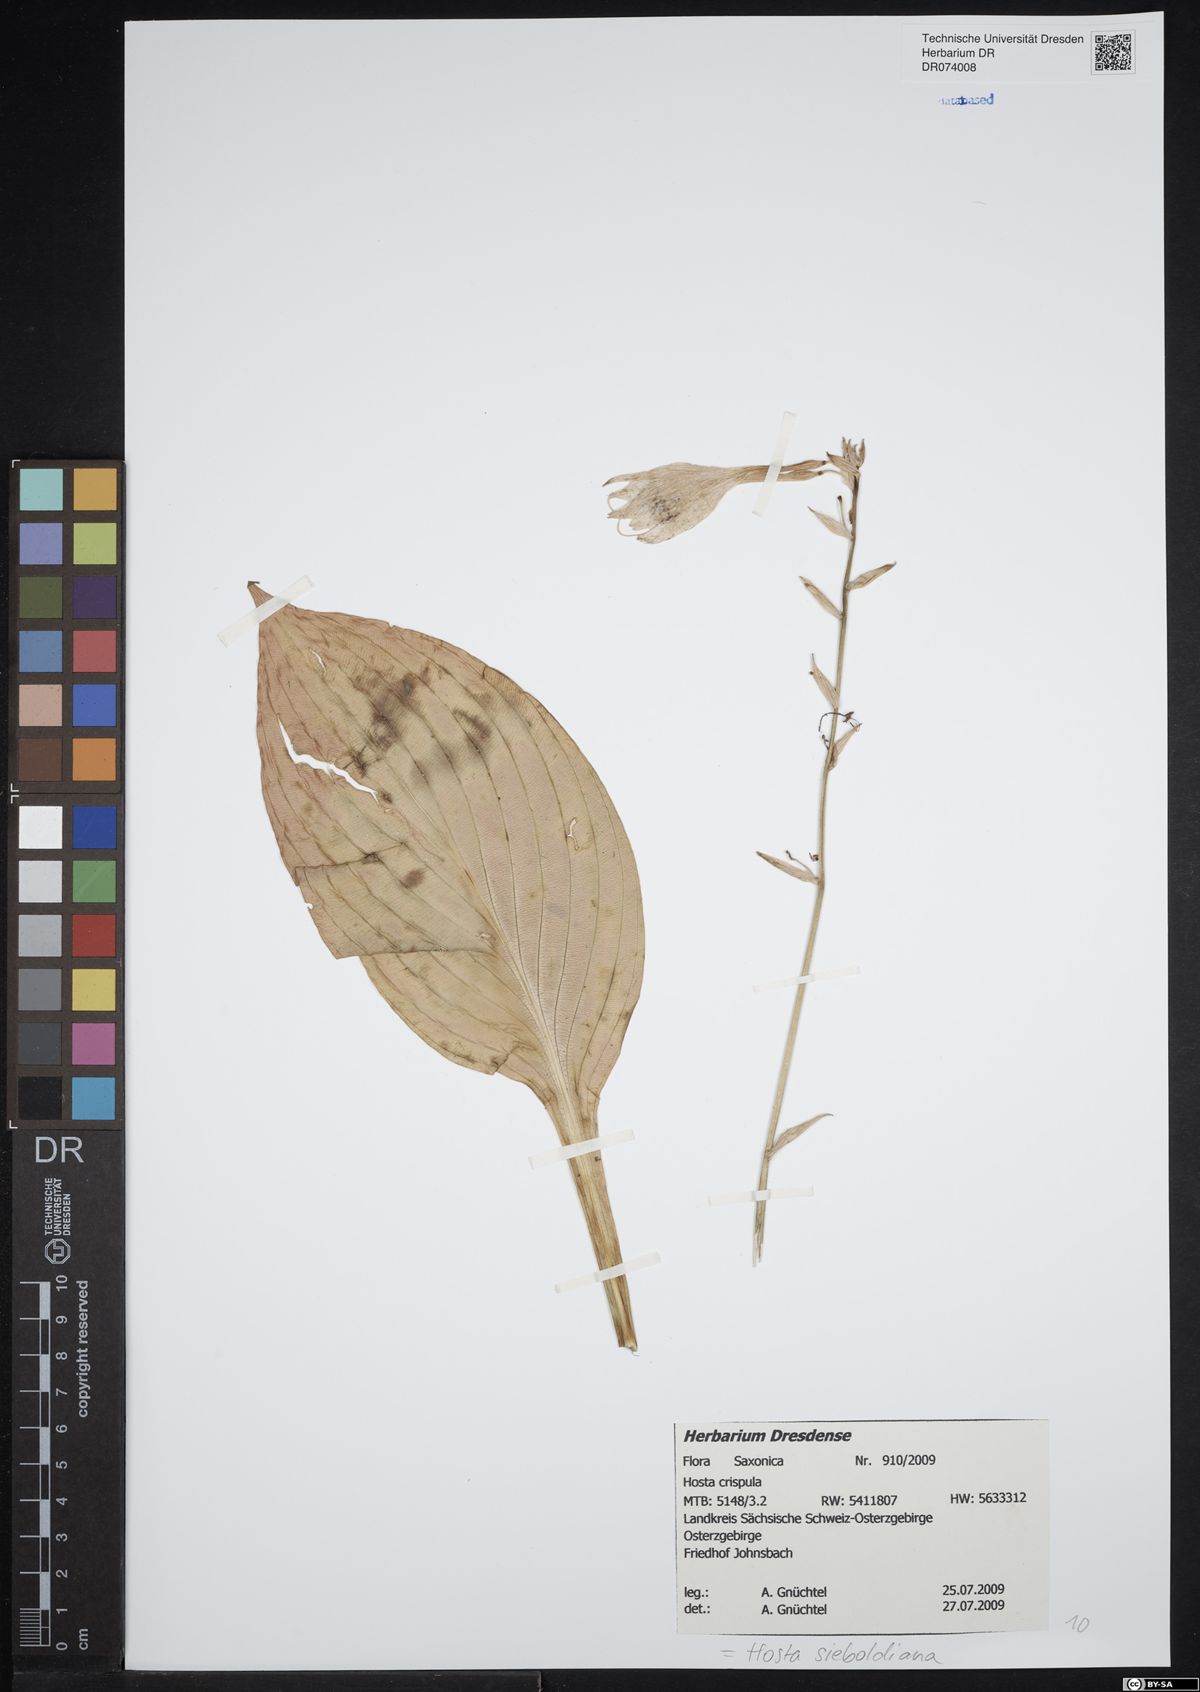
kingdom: Plantae
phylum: Tracheophyta
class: Liliopsida
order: Asparagales
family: Asparagaceae
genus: Hosta
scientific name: Hosta sieboldiana
